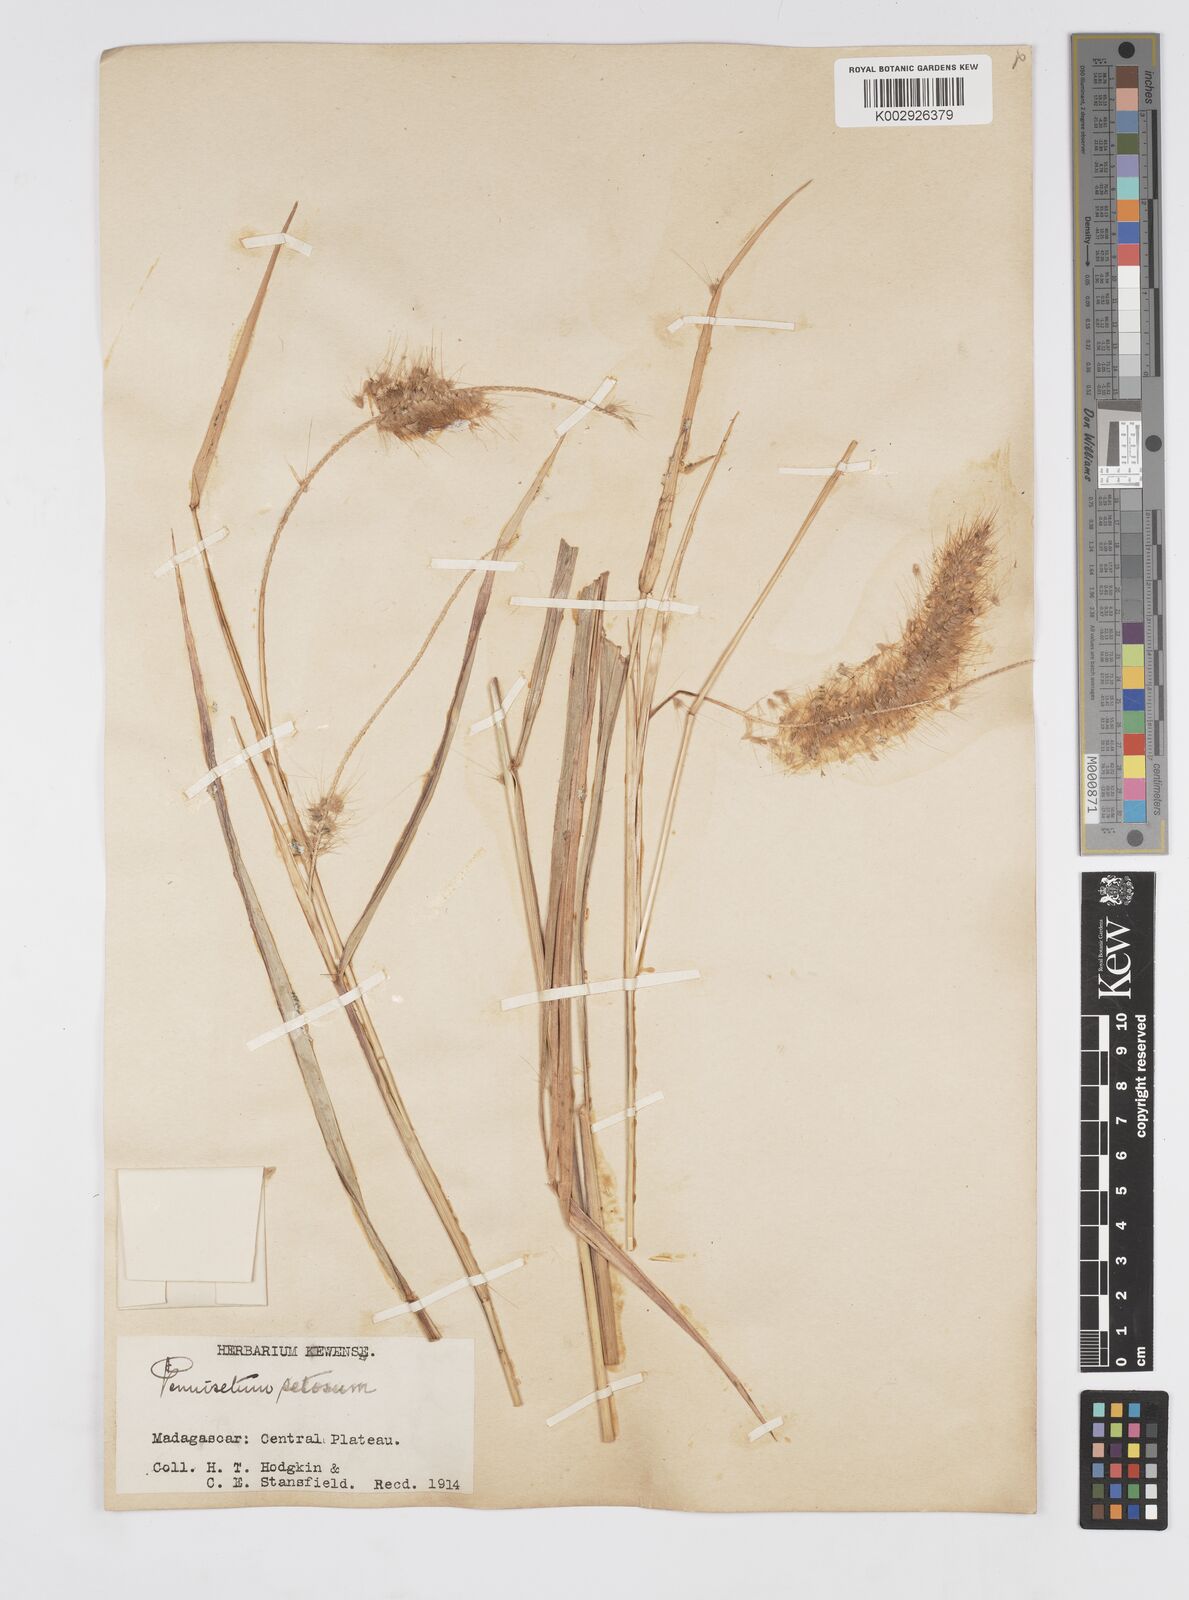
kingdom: Plantae
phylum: Tracheophyta
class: Liliopsida
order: Poales
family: Poaceae
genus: Setaria
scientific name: Setaria parviflora
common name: Knotroot bristle-grass
